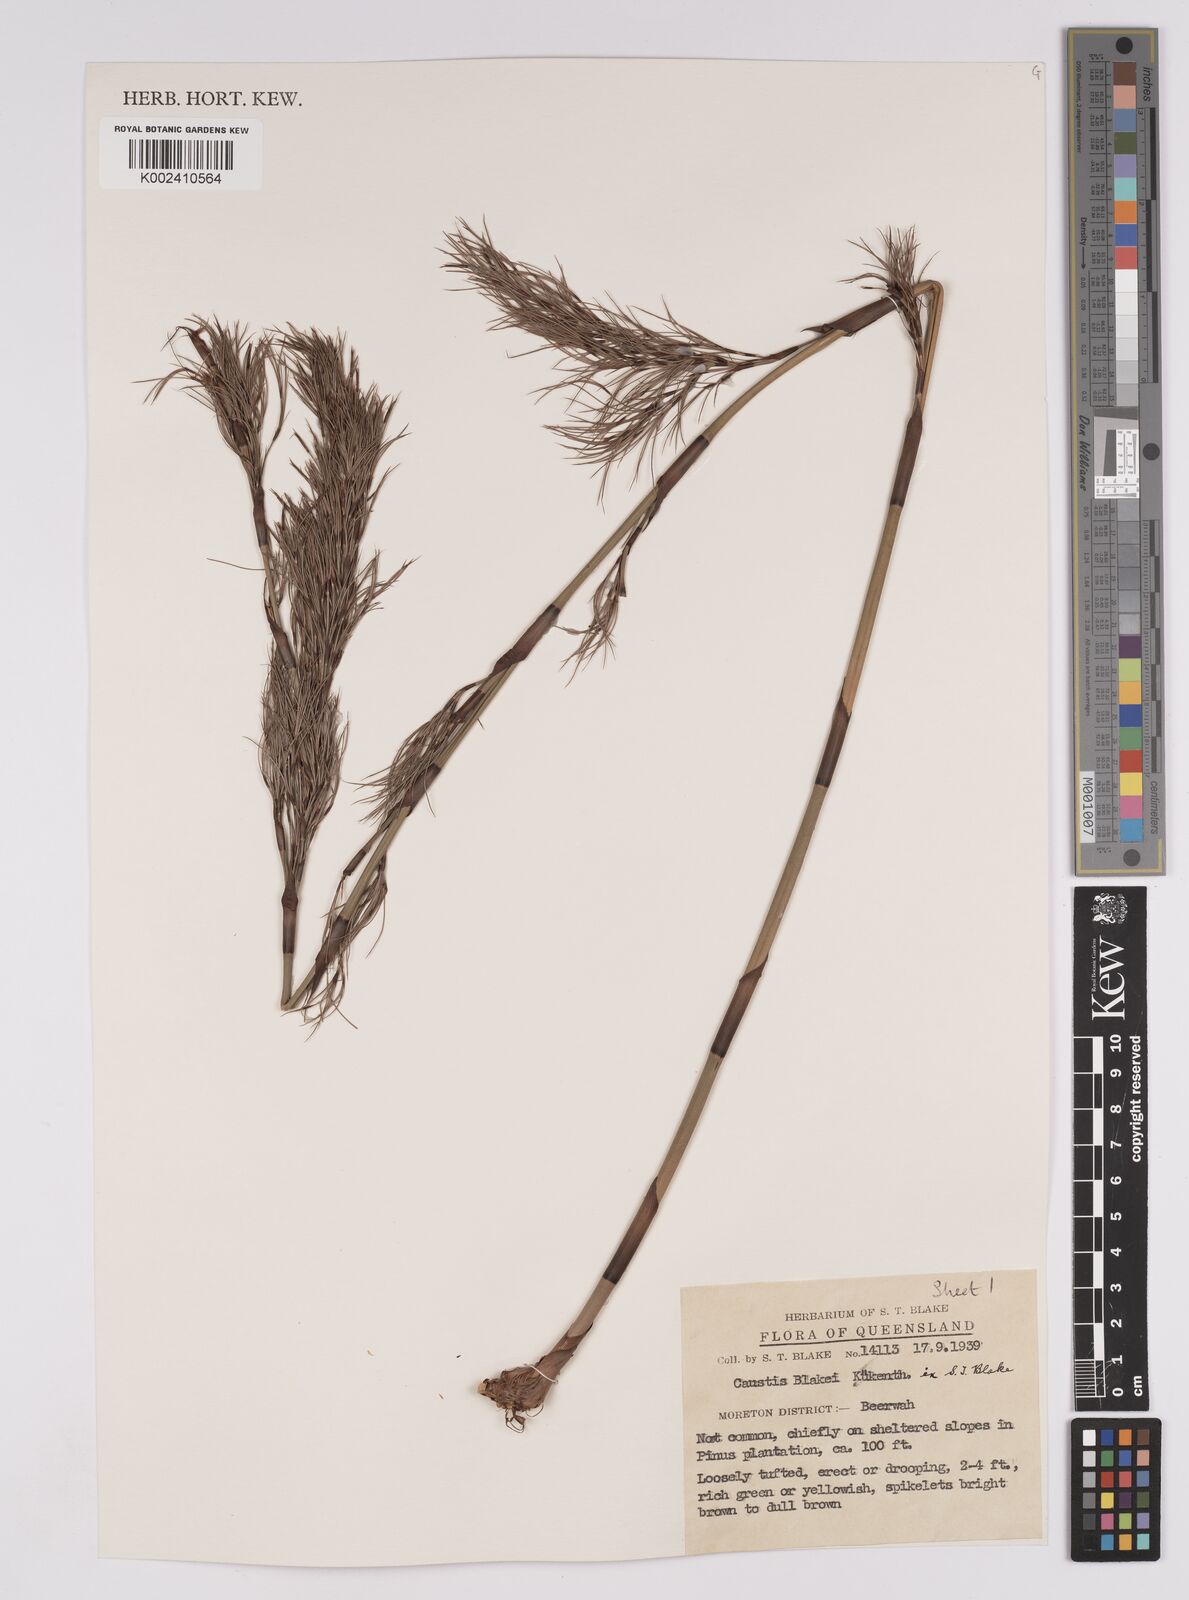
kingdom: Plantae
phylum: Tracheophyta
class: Liliopsida
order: Poales
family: Cyperaceae
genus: Caustis
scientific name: Caustis blakei
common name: Foxtail-fern
